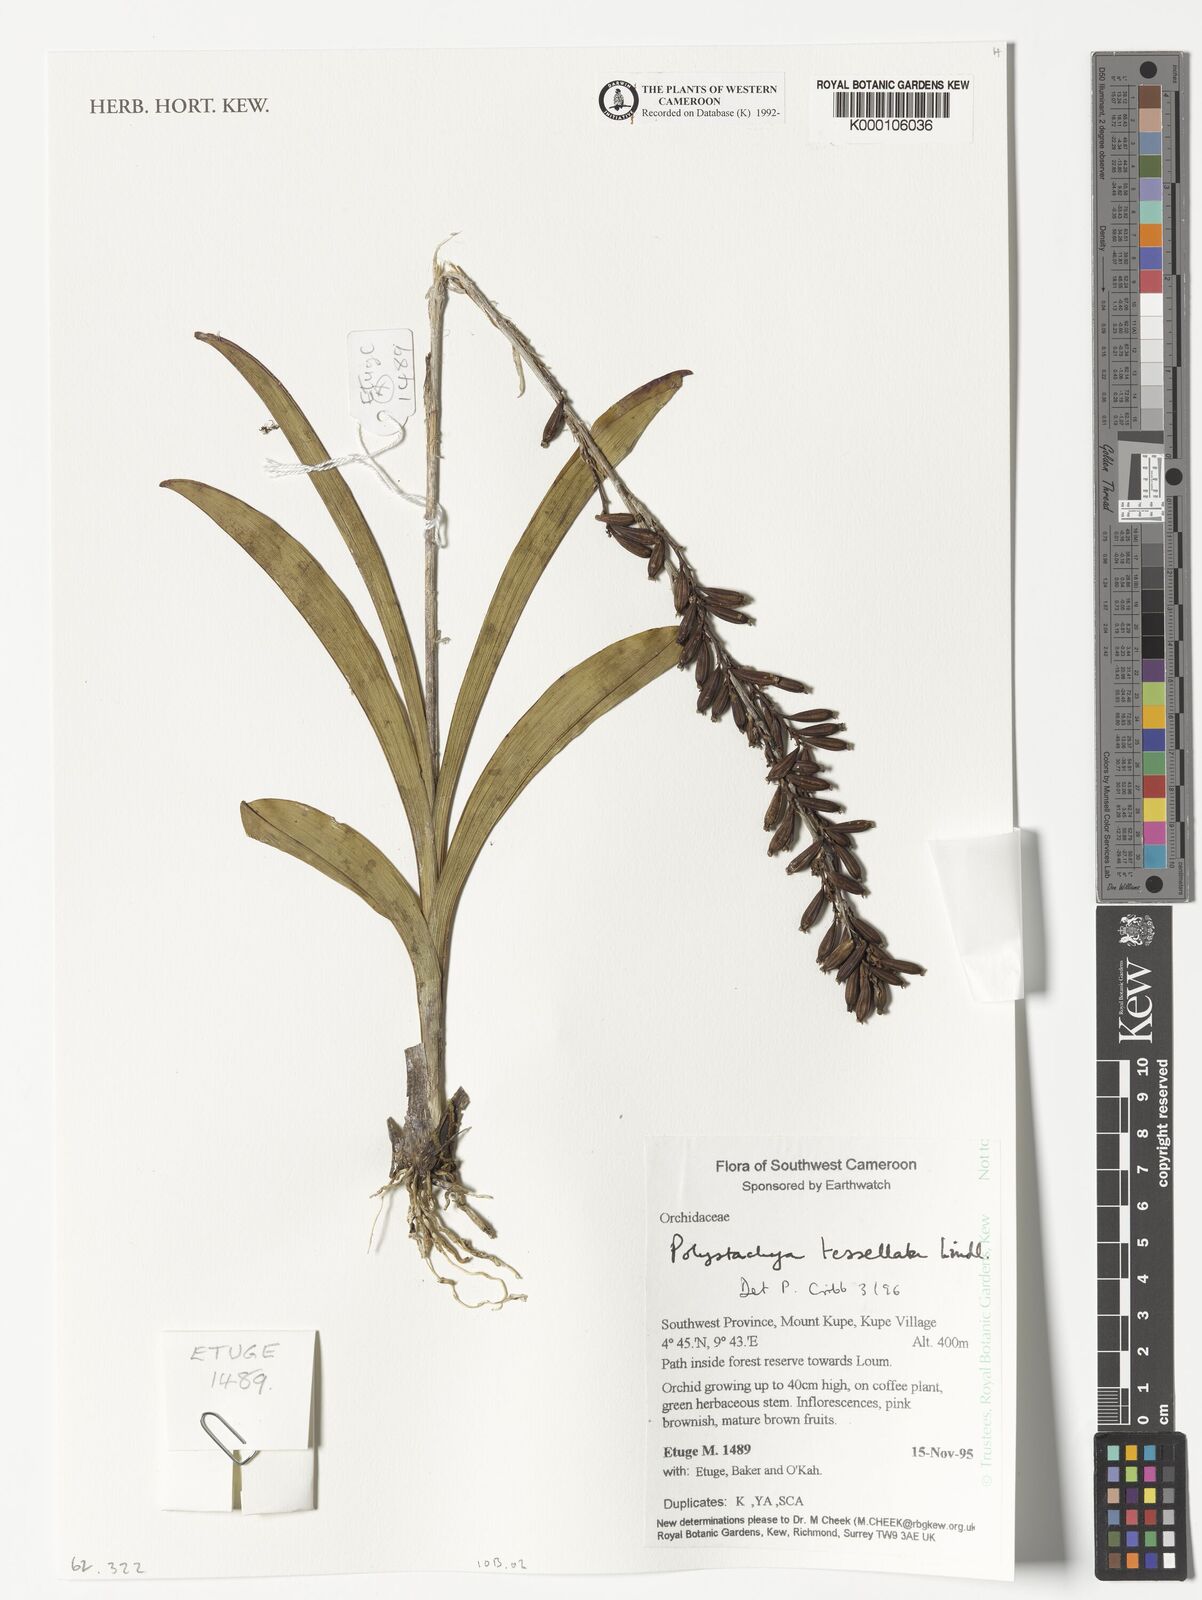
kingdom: Plantae
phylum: Tracheophyta
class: Liliopsida
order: Asparagales
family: Orchidaceae
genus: Polystachya
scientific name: Polystachya concreta
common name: Greater yellowspike orchid
